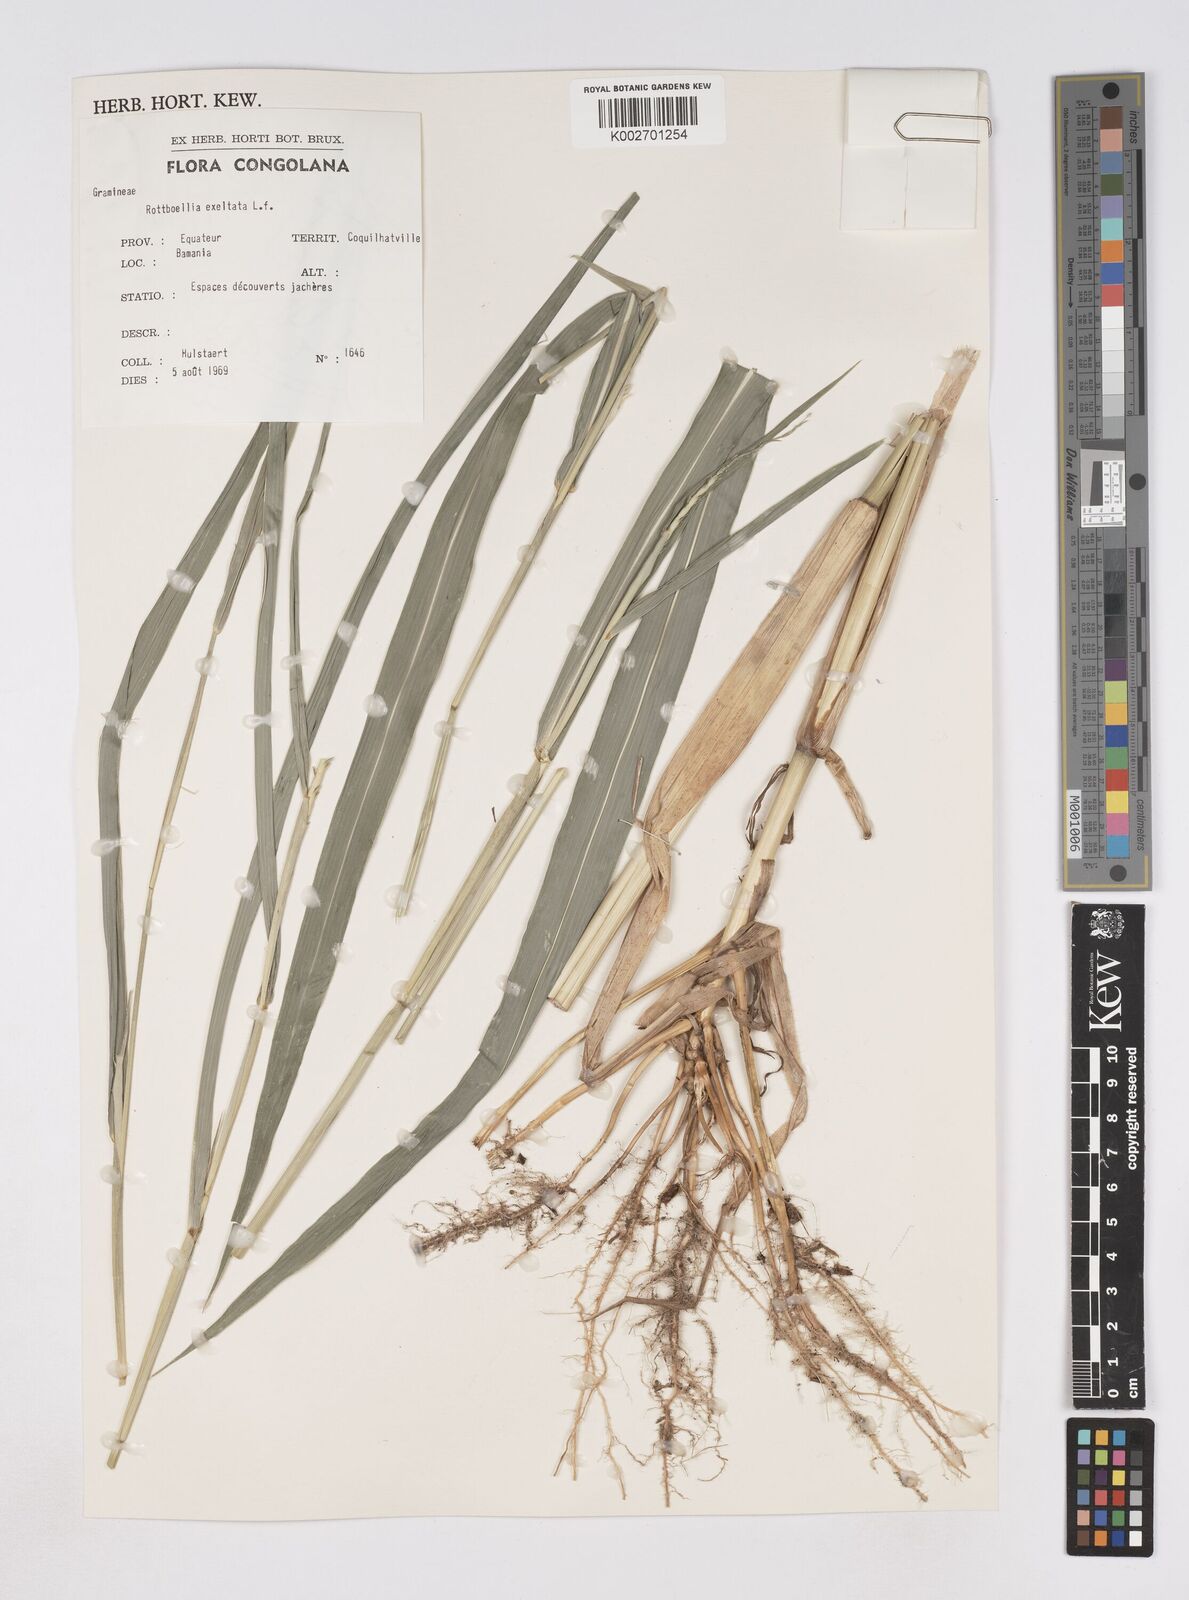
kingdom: Plantae
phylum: Tracheophyta
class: Liliopsida
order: Poales
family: Poaceae
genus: Rottboellia
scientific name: Rottboellia
